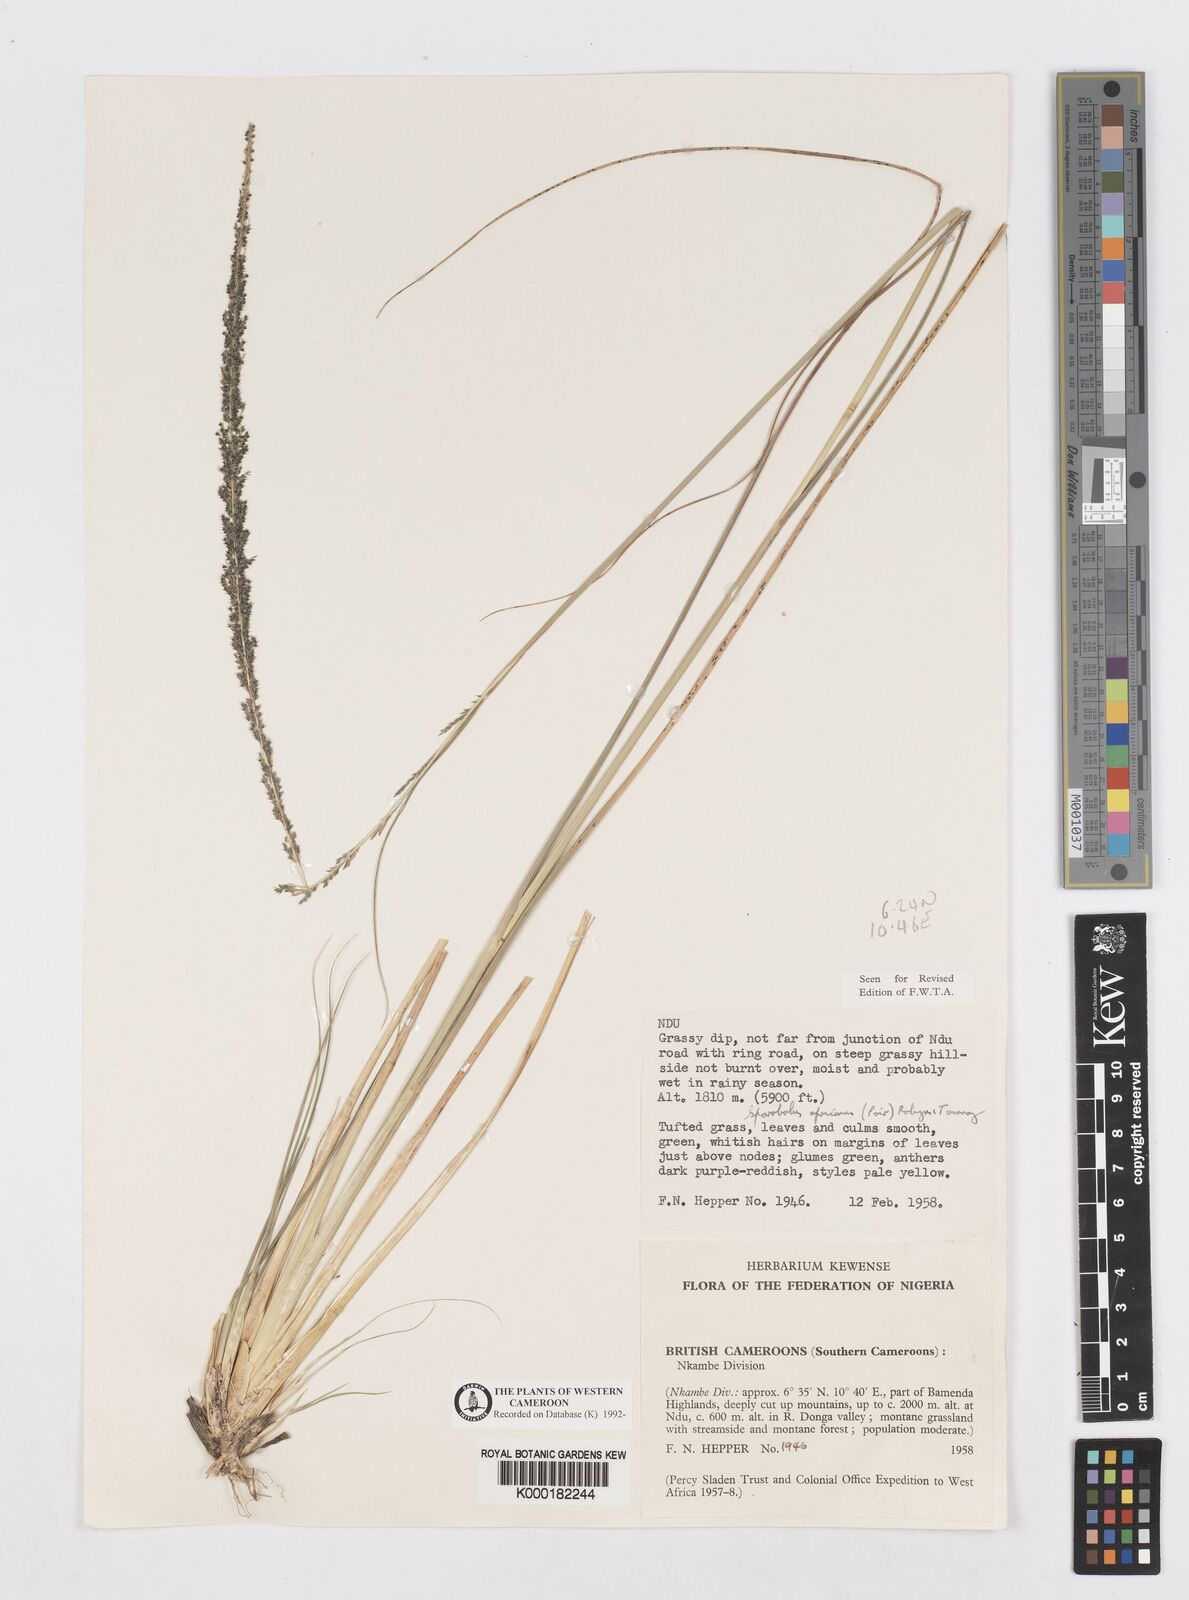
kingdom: Plantae
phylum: Tracheophyta
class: Liliopsida
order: Poales
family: Poaceae
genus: Sporobolus
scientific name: Sporobolus africanus
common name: African dropseed
